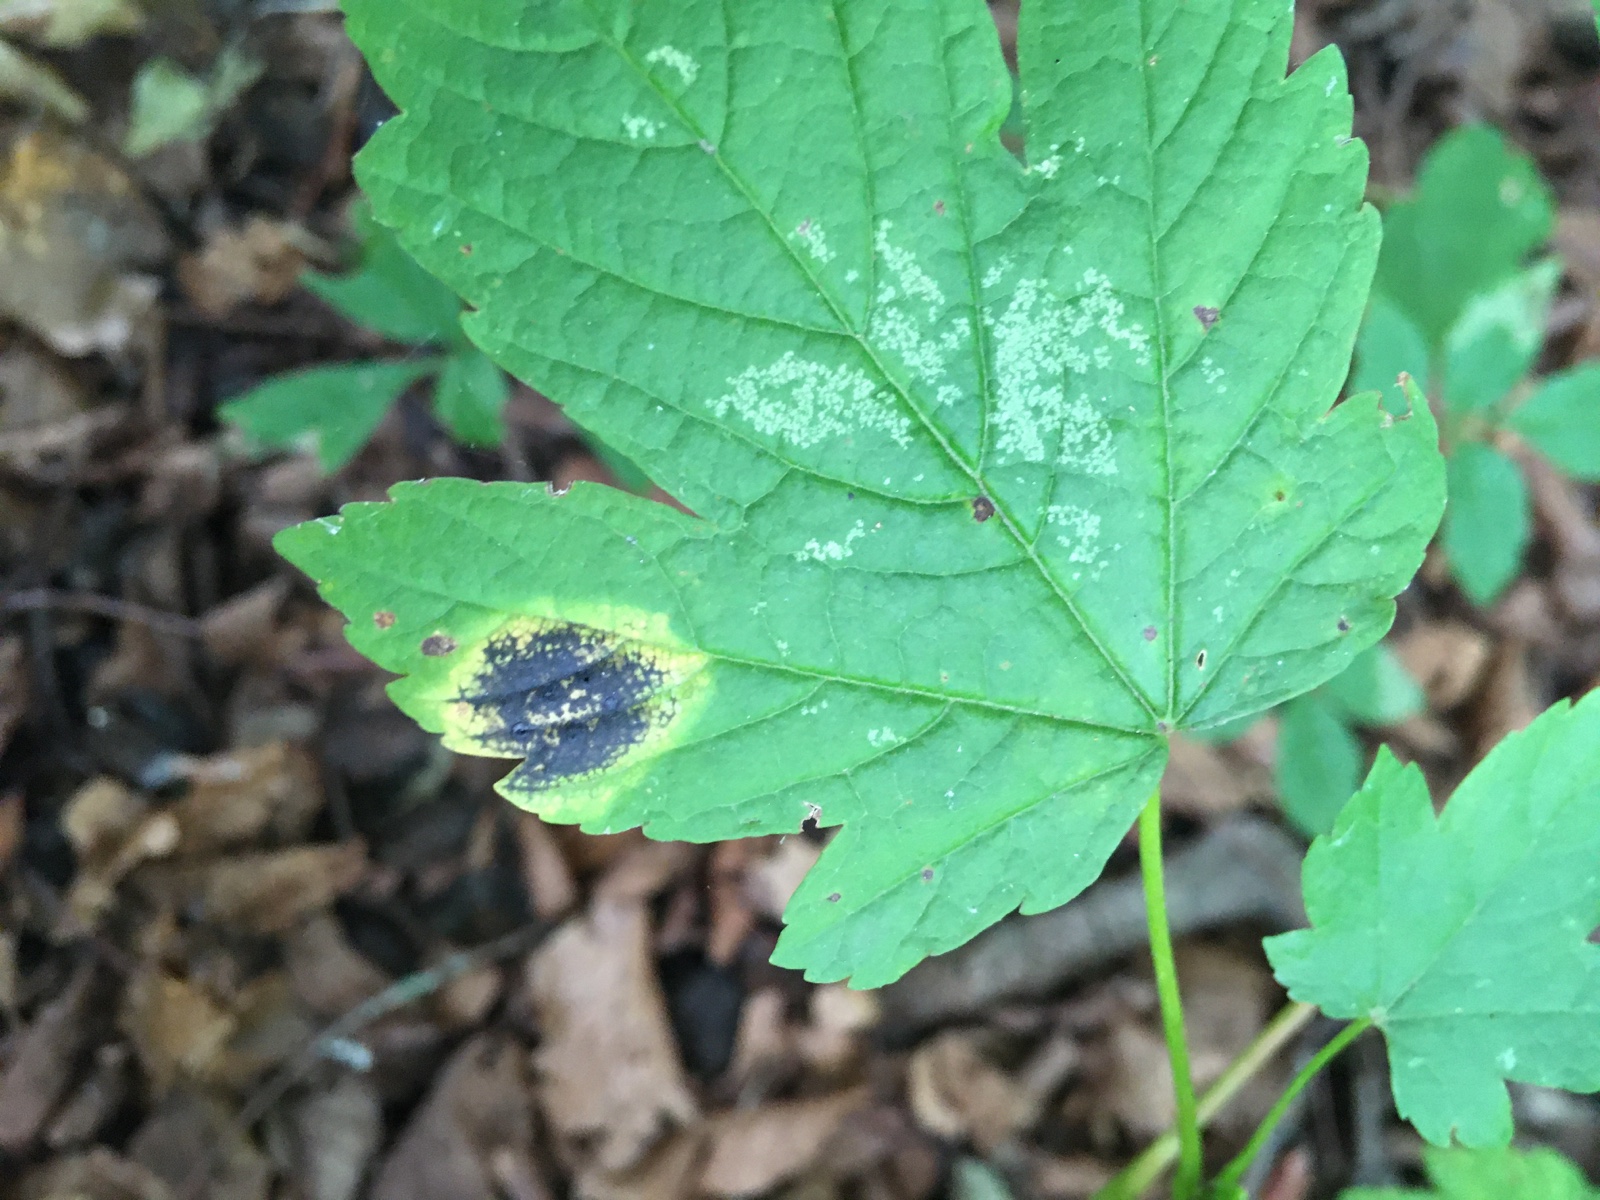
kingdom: Fungi
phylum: Ascomycota
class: Leotiomycetes
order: Rhytismatales
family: Rhytismataceae
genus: Rhytisma
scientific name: Rhytisma acerinum
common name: ahorn-rynkeplet
